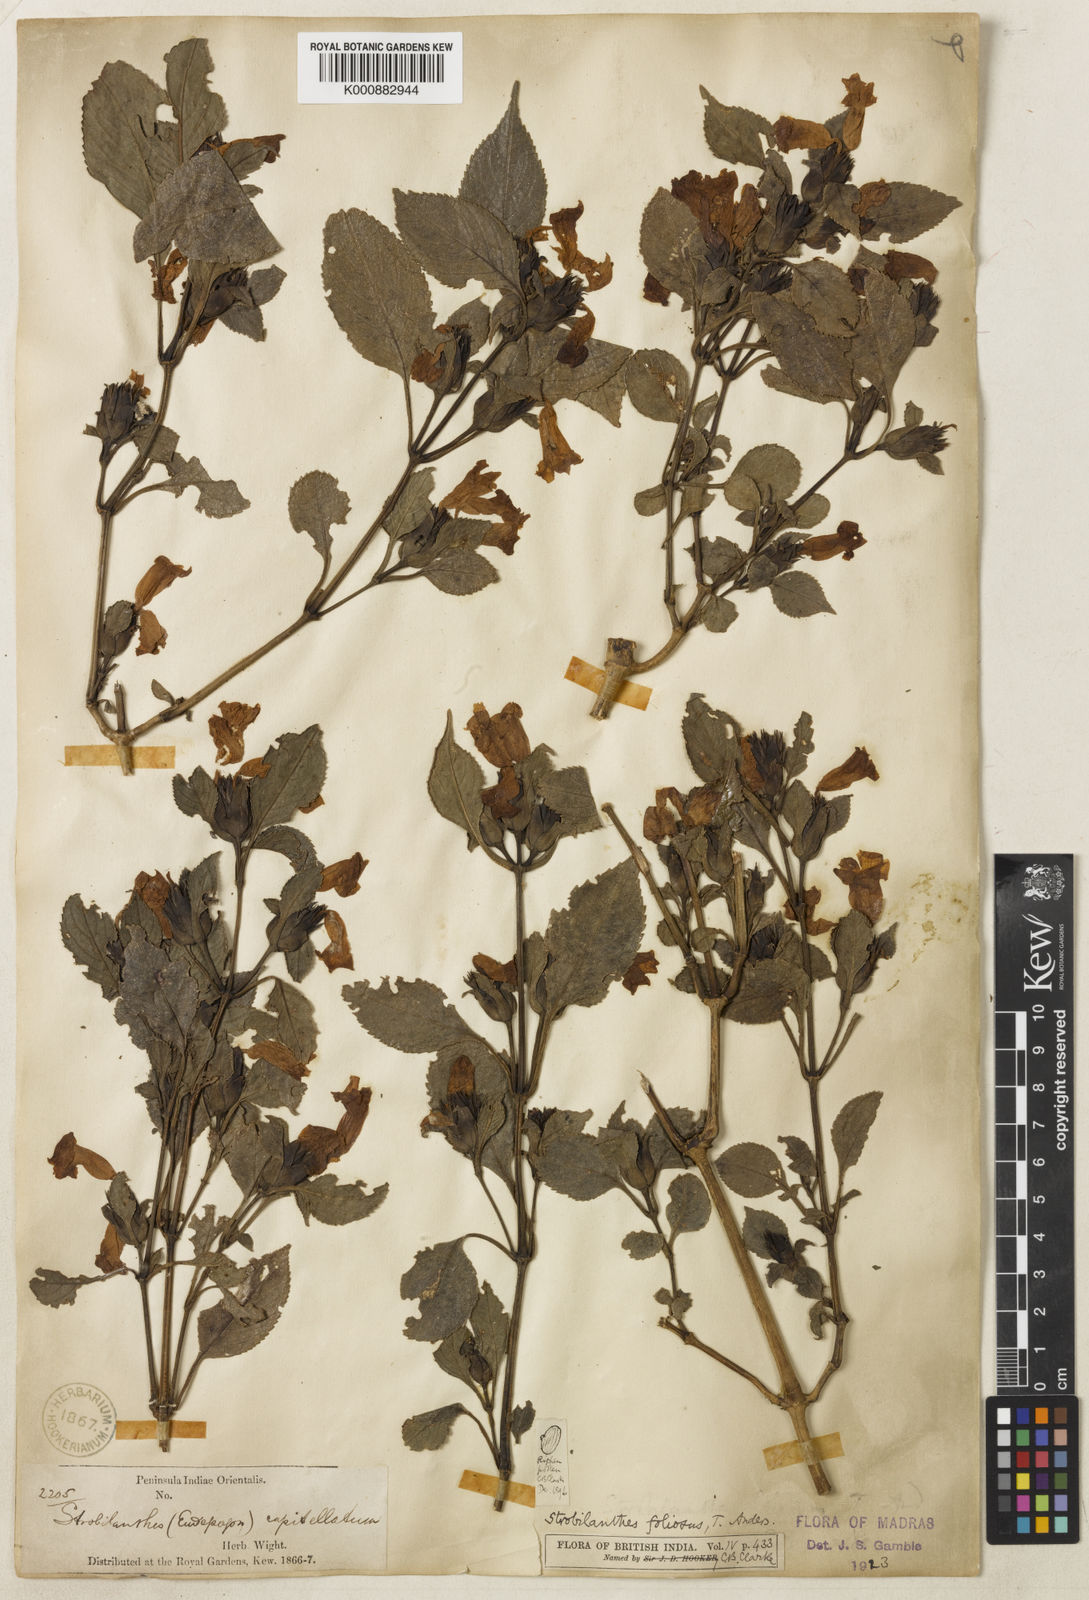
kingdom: Plantae
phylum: Tracheophyta
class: Magnoliopsida
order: Lamiales
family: Acanthaceae
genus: Strobilanthes
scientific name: Strobilanthes foliosa
